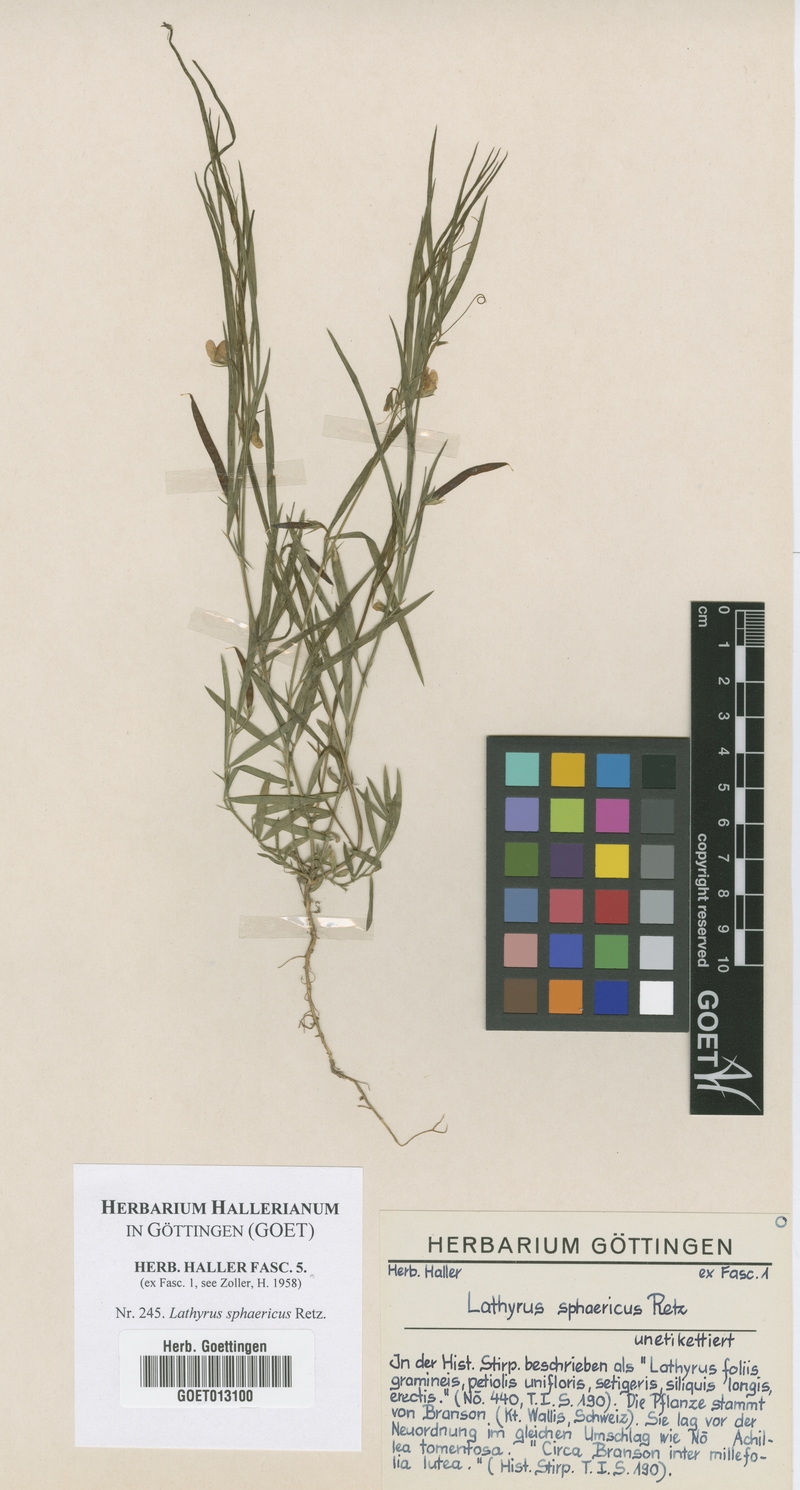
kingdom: Plantae
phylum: Tracheophyta
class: Magnoliopsida
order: Fabales
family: Fabaceae
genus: Lathyrus
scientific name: Lathyrus sphaericus
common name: Grass pea
